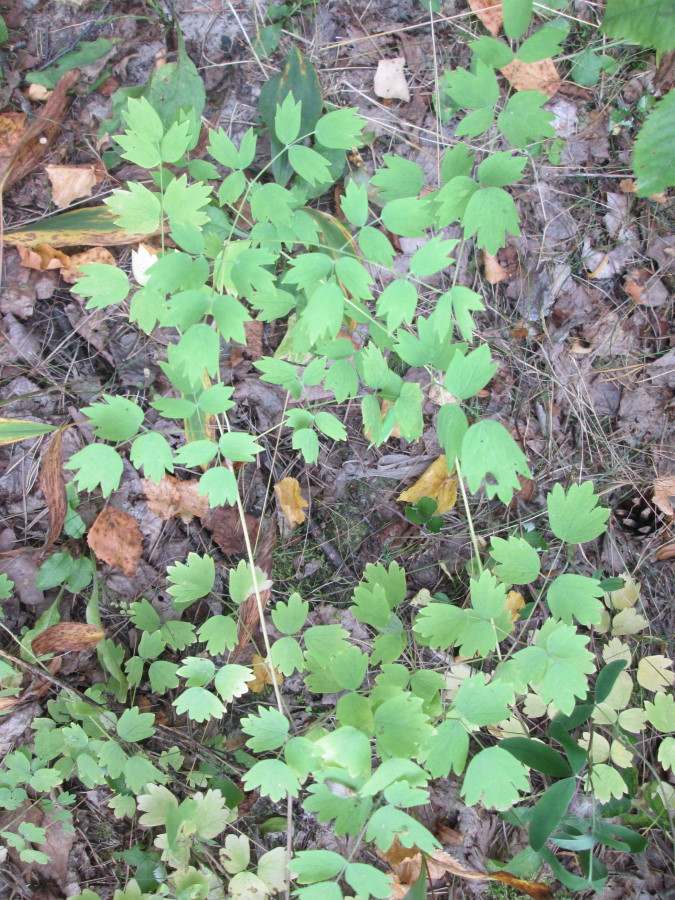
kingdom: Plantae
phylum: Tracheophyta
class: Magnoliopsida
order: Ranunculales
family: Ranunculaceae
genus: Thalictrum
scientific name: Thalictrum aquilegiifolium
